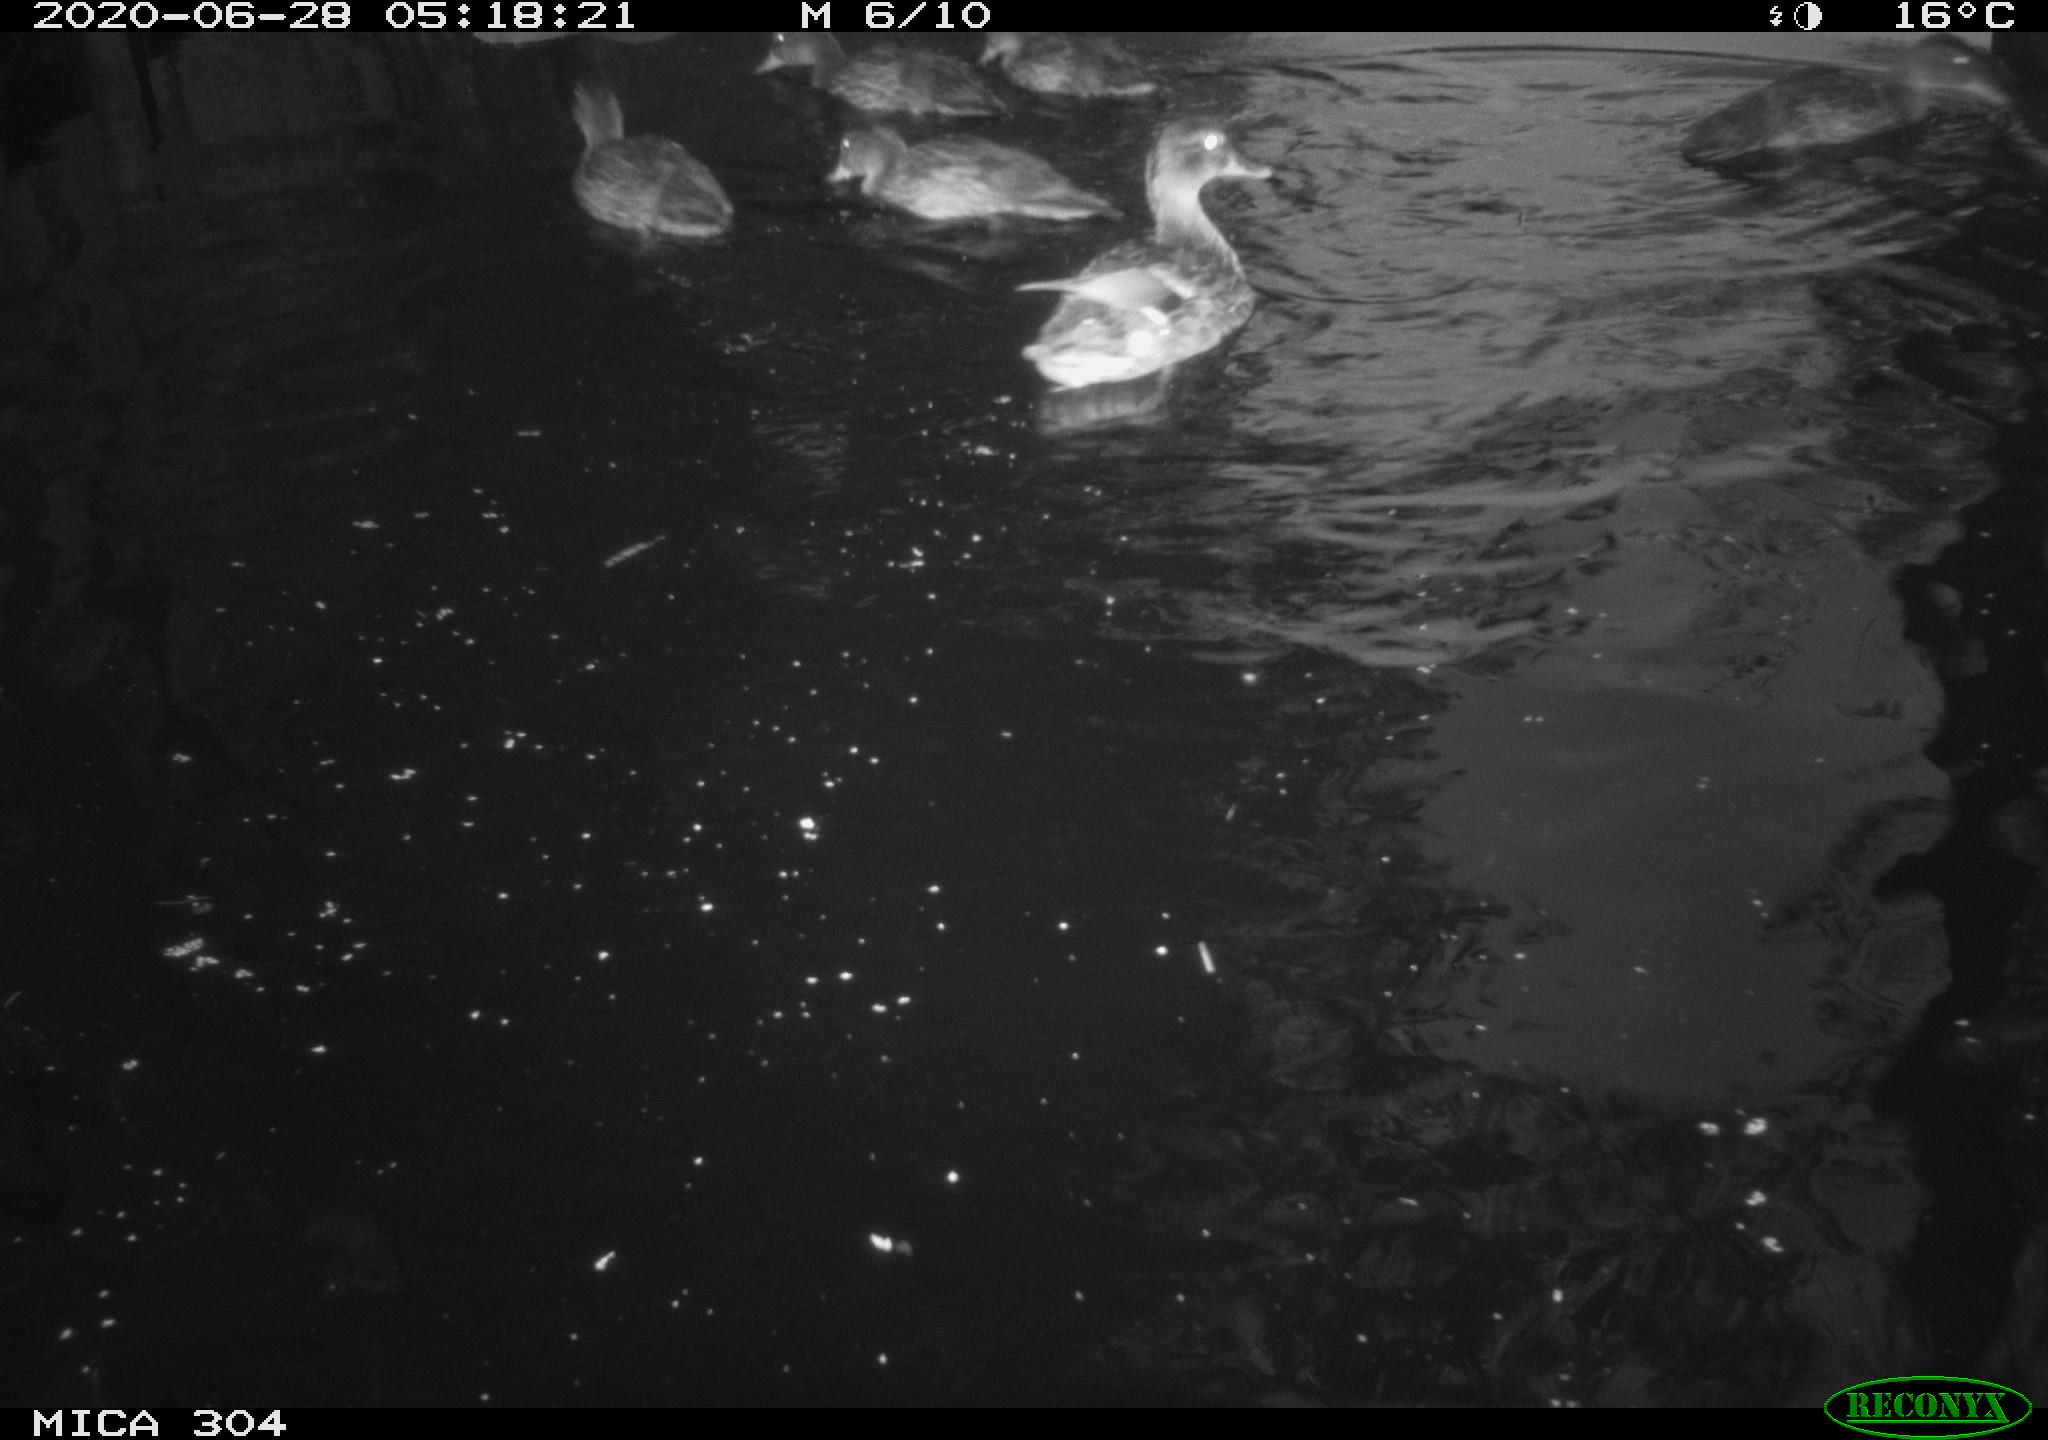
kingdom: Animalia
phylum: Chordata
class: Aves
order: Anseriformes
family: Anatidae
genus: Anas
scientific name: Anas platyrhynchos
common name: Mallard
